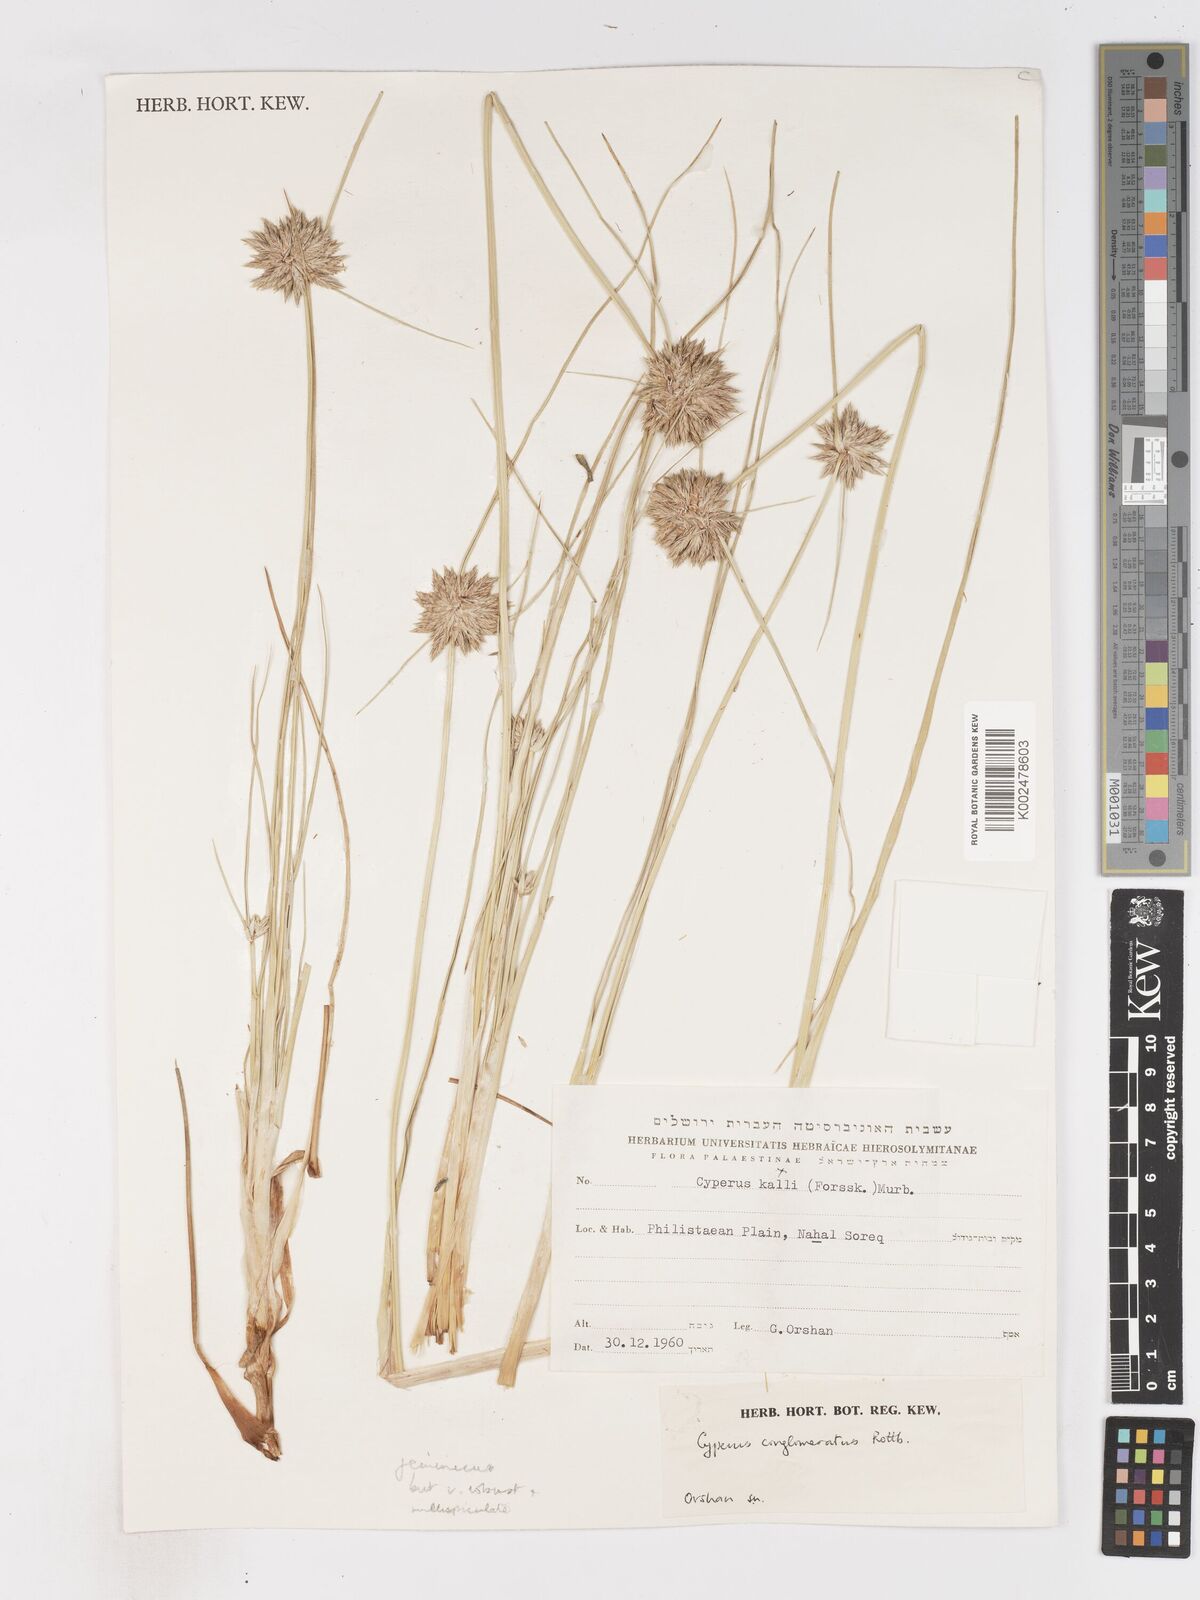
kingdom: Plantae
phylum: Tracheophyta
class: Liliopsida
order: Poales
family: Cyperaceae
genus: Cyperus
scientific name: Cyperus conglomeratus
